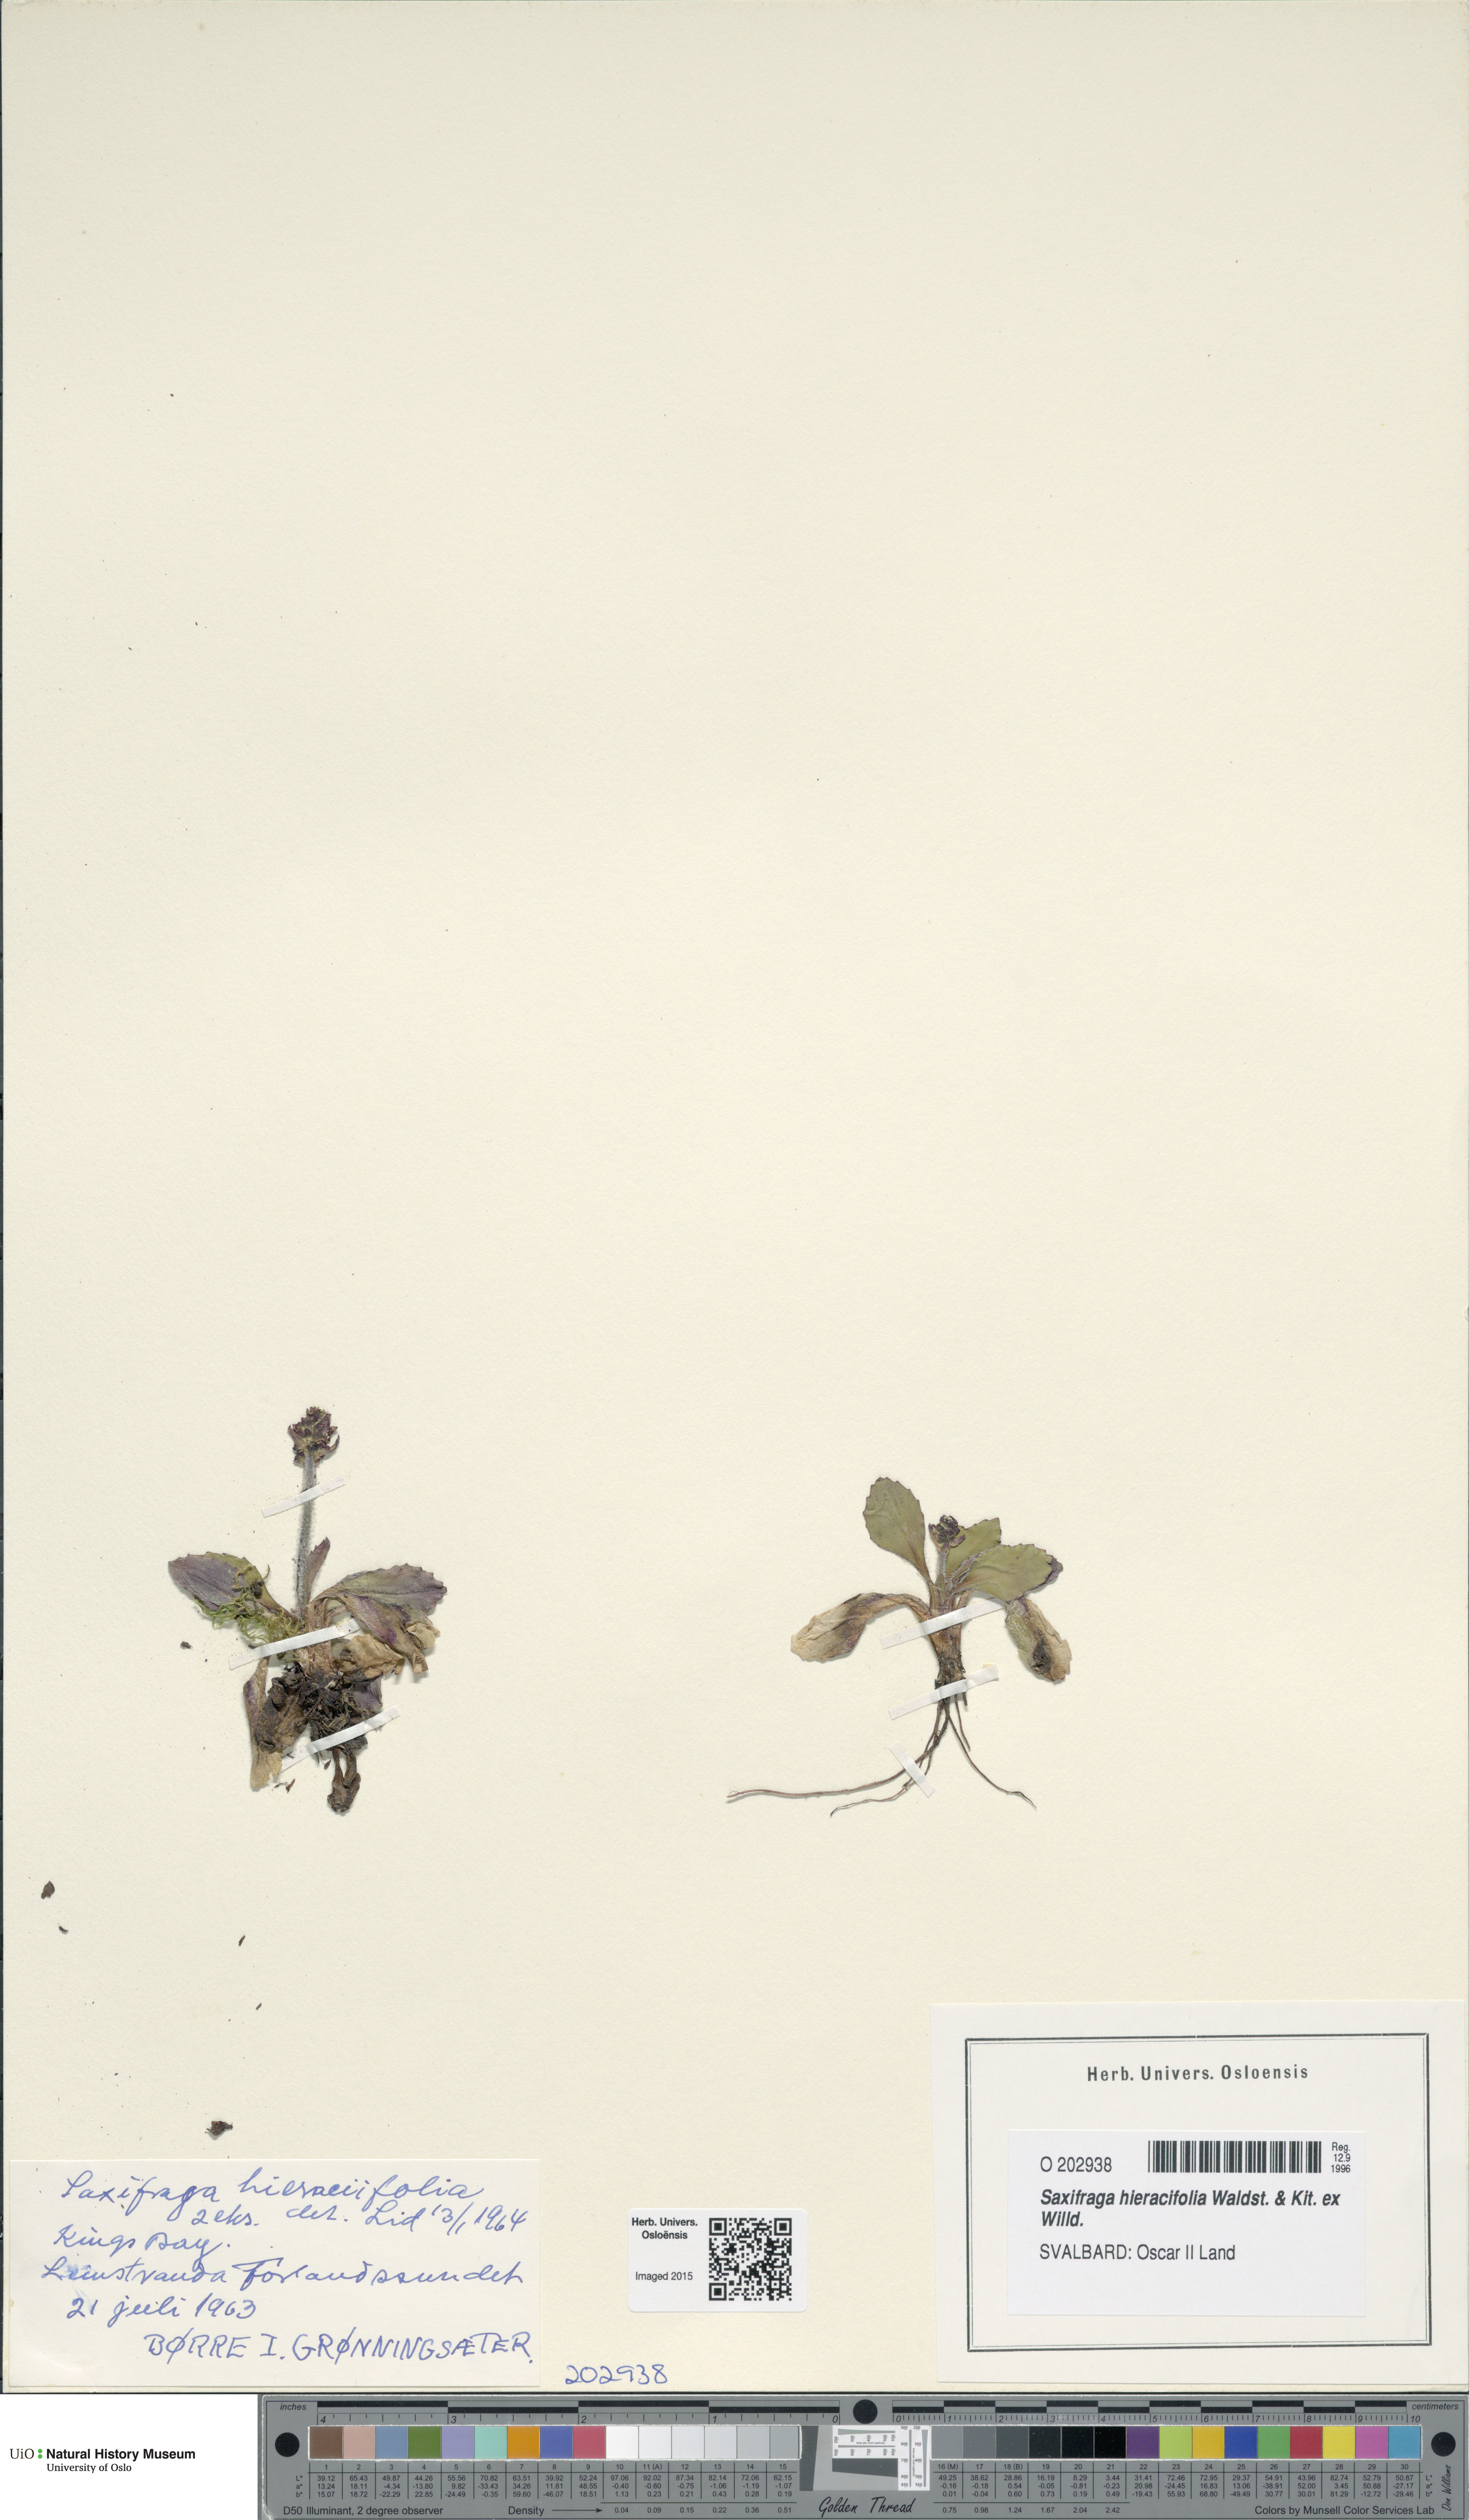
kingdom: Plantae
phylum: Tracheophyta
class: Magnoliopsida
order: Saxifragales
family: Saxifragaceae
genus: Micranthes
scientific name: Micranthes hieraciifolia
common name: Hawkweed-leaved saxifrage
